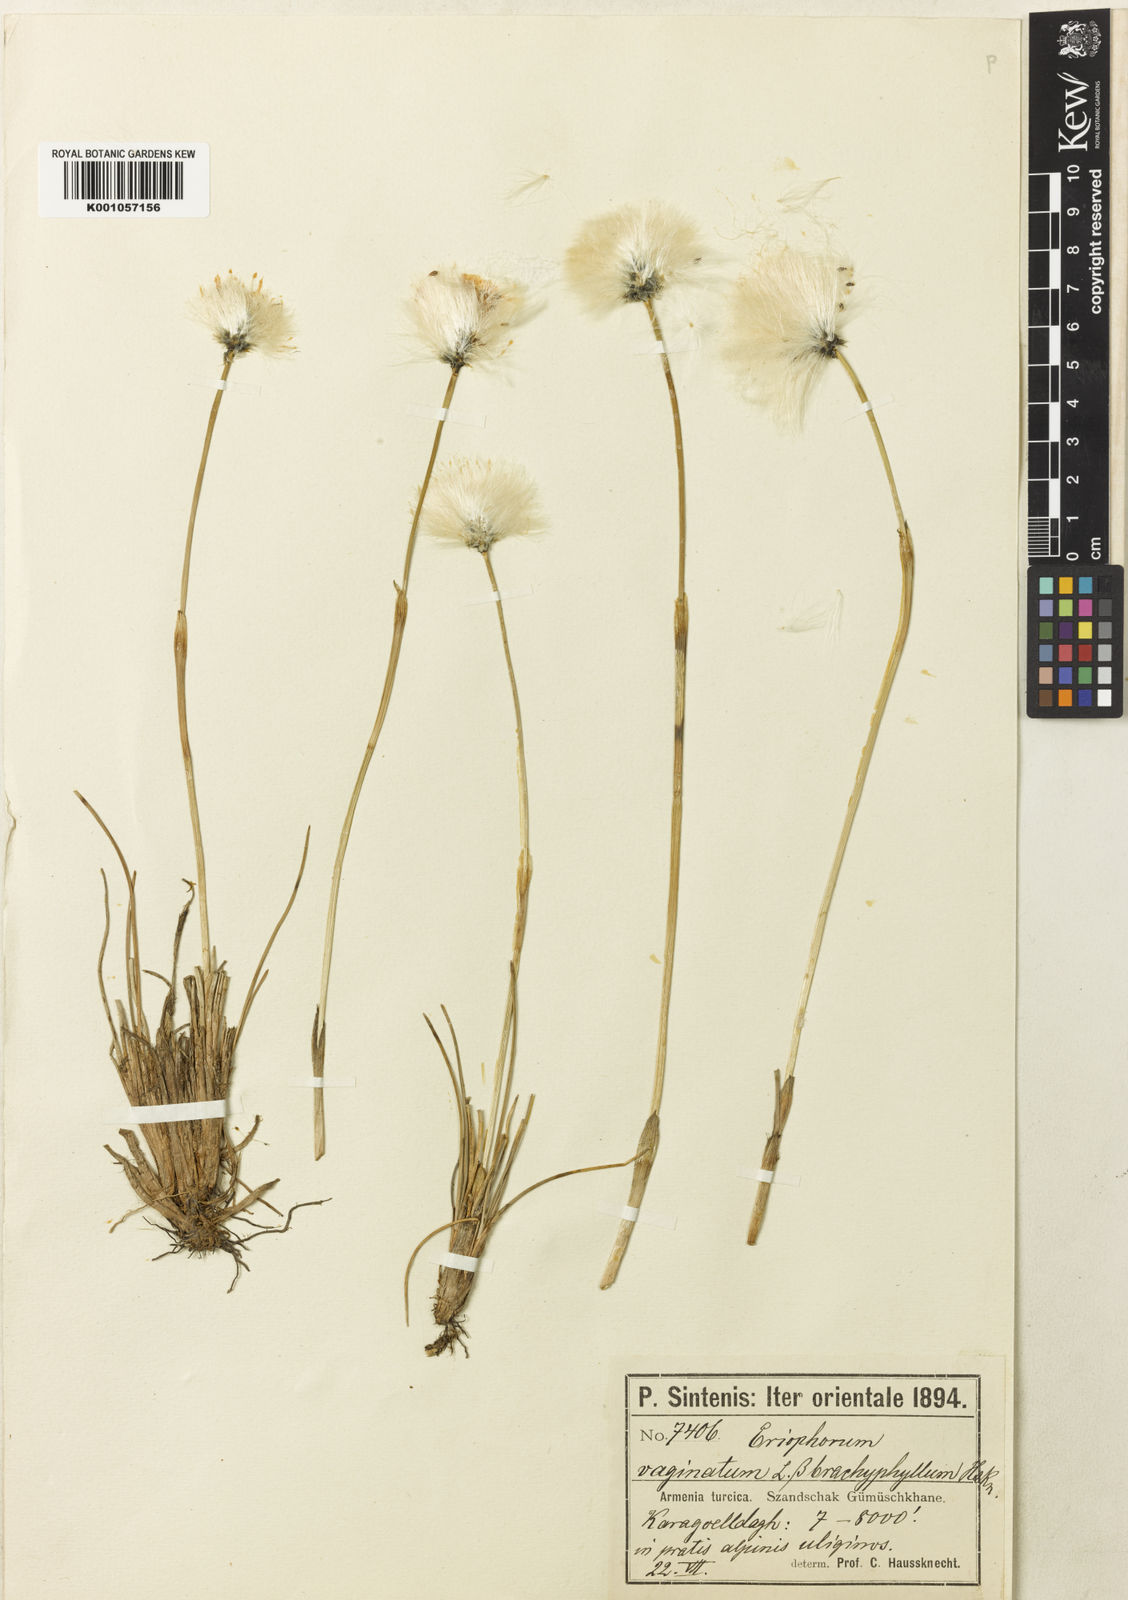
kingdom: Plantae
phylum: Tracheophyta
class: Liliopsida
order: Poales
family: Cyperaceae
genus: Eriophorum
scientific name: Eriophorum vaginatum
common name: Hare's-tail cottongrass
